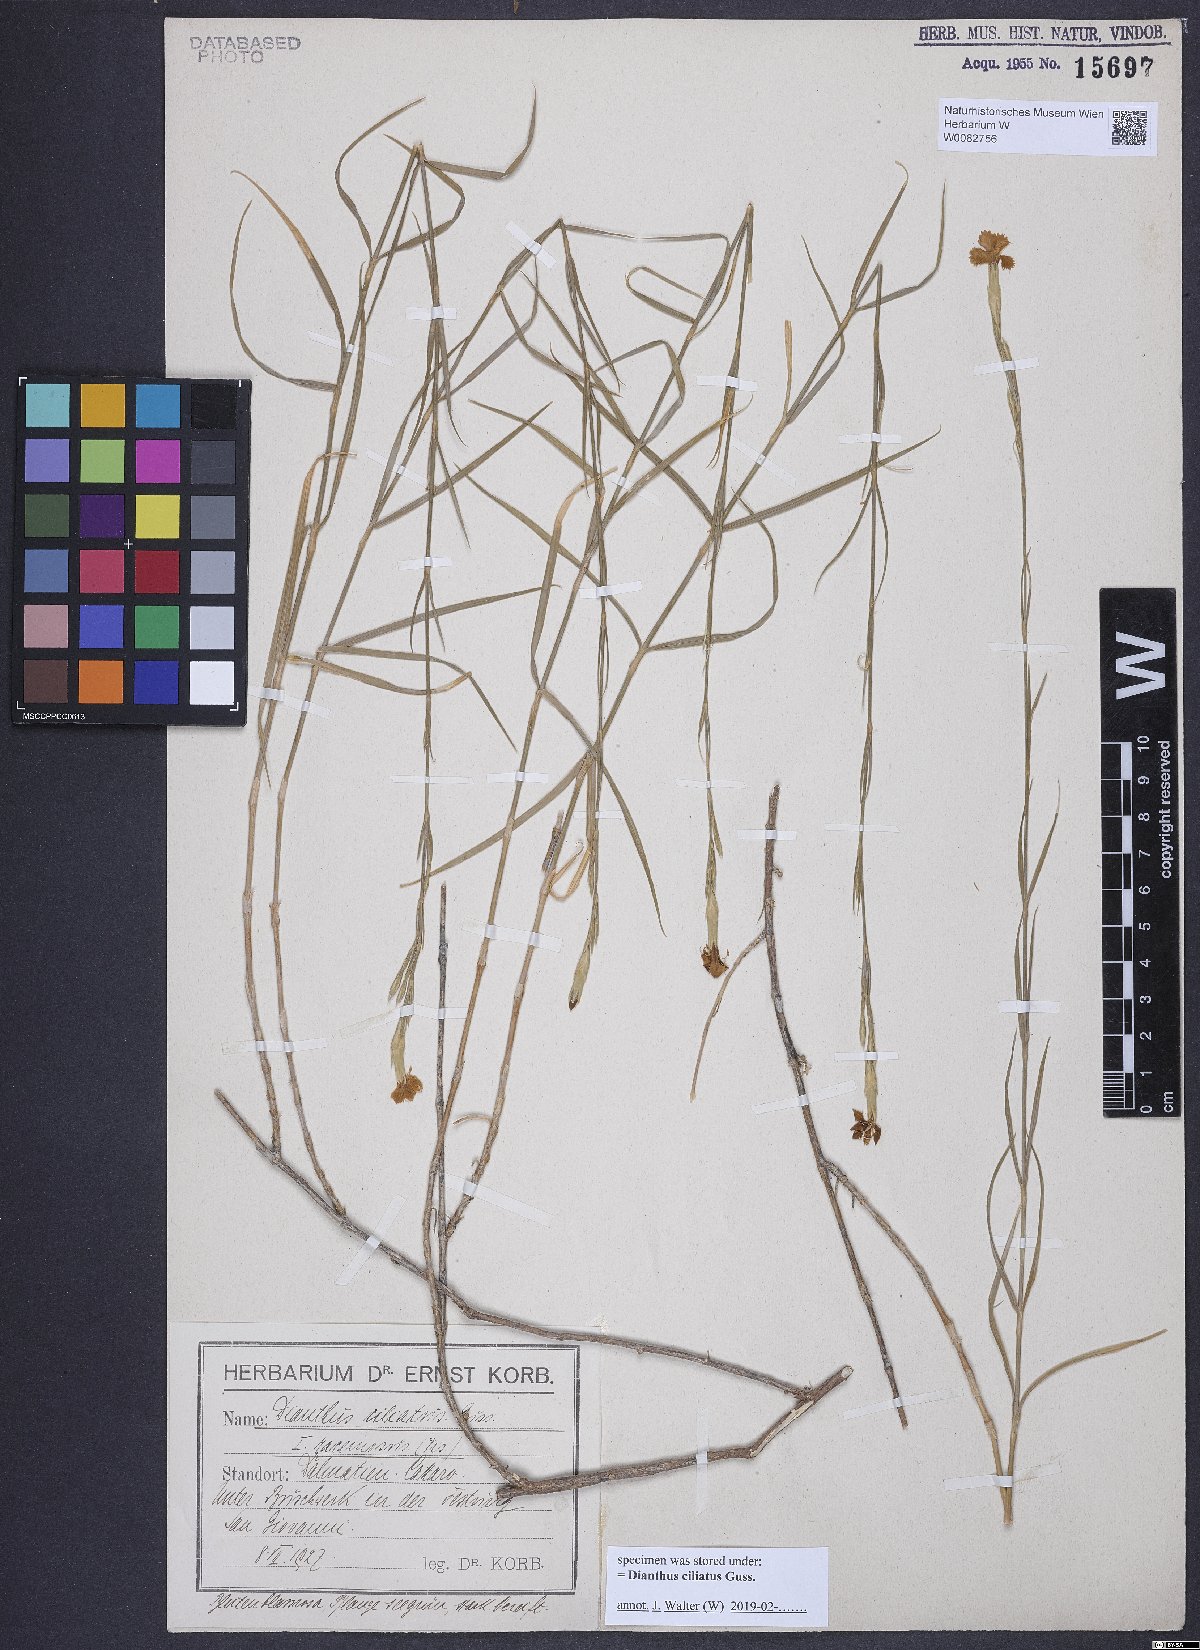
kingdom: Plantae
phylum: Tracheophyta
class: Magnoliopsida
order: Caryophyllales
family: Caryophyllaceae
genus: Dianthus
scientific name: Dianthus ciliatus
